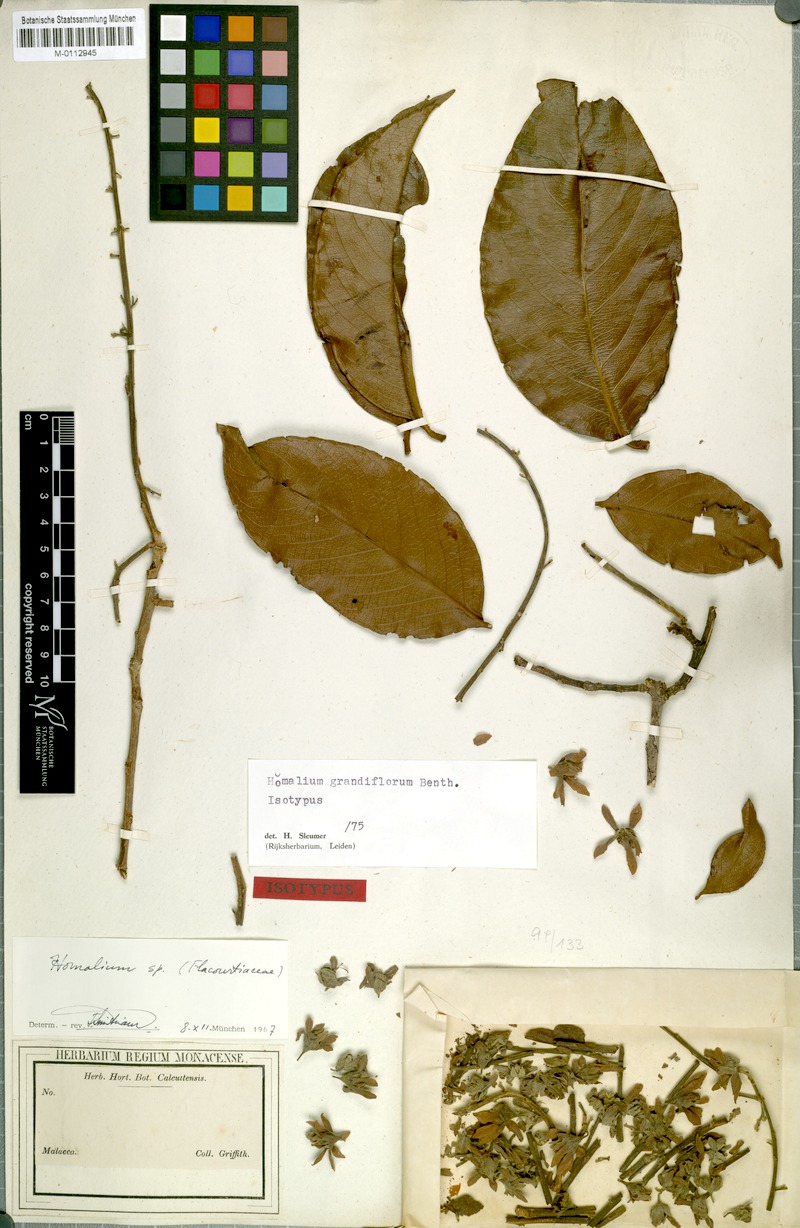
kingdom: Plantae
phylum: Tracheophyta
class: Magnoliopsida
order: Malpighiales
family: Salicaceae
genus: Homalium
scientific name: Homalium grandiflorum
